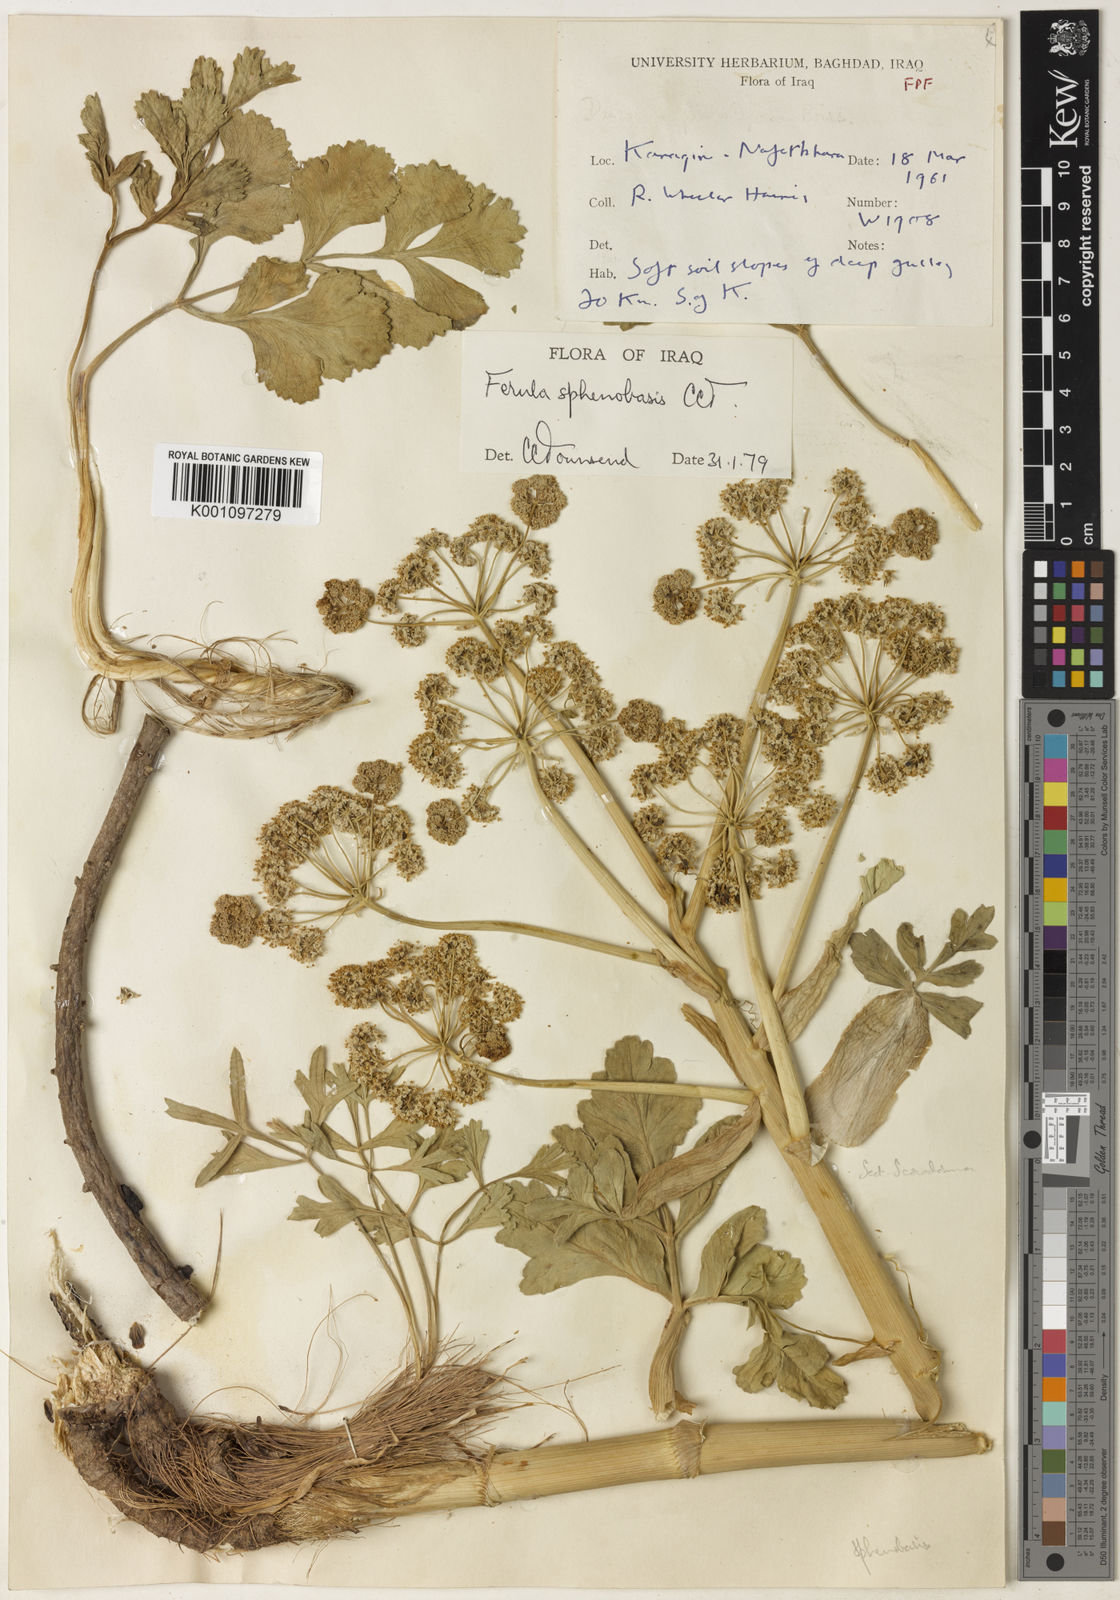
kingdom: Plantae
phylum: Tracheophyta
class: Magnoliopsida
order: Apiales
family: Apiaceae
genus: Ferula
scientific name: Ferula sphenobasis
